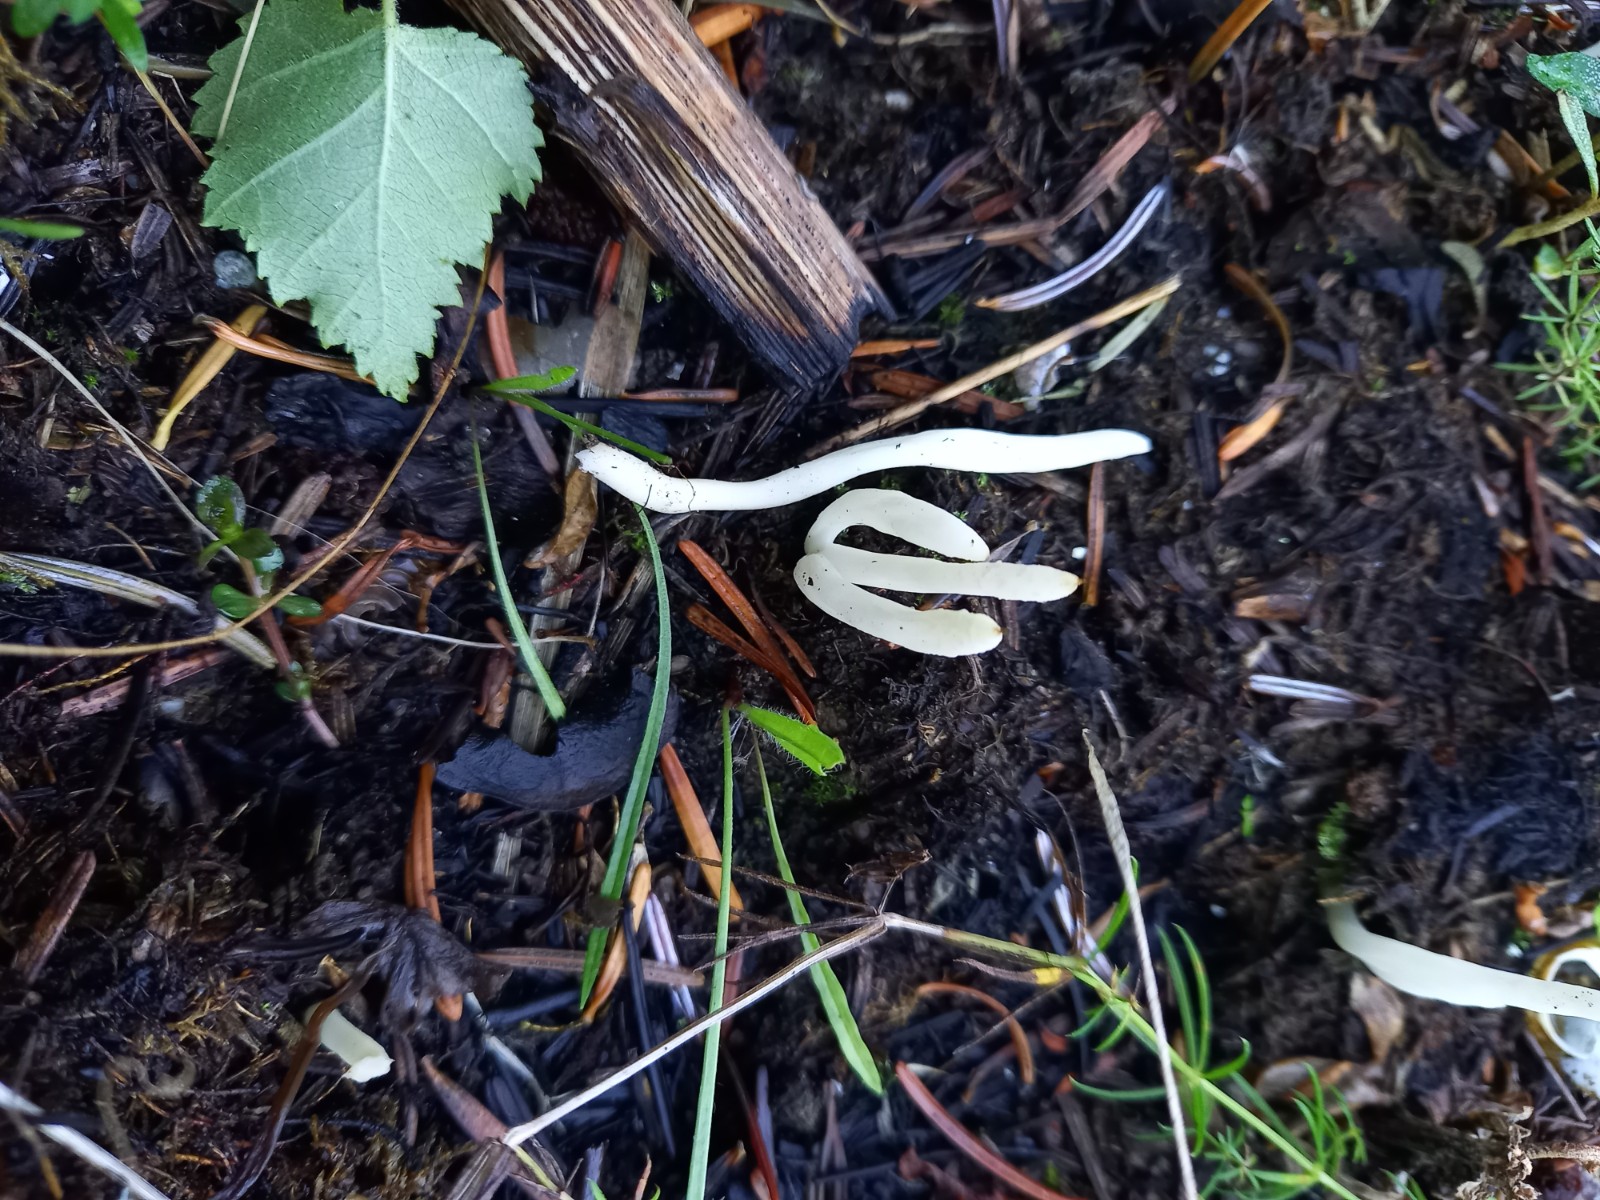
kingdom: Fungi
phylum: Basidiomycota
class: Agaricomycetes
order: Agaricales
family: Clavariaceae
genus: Clavaria
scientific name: Clavaria falcata
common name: hvid køllesvamp
